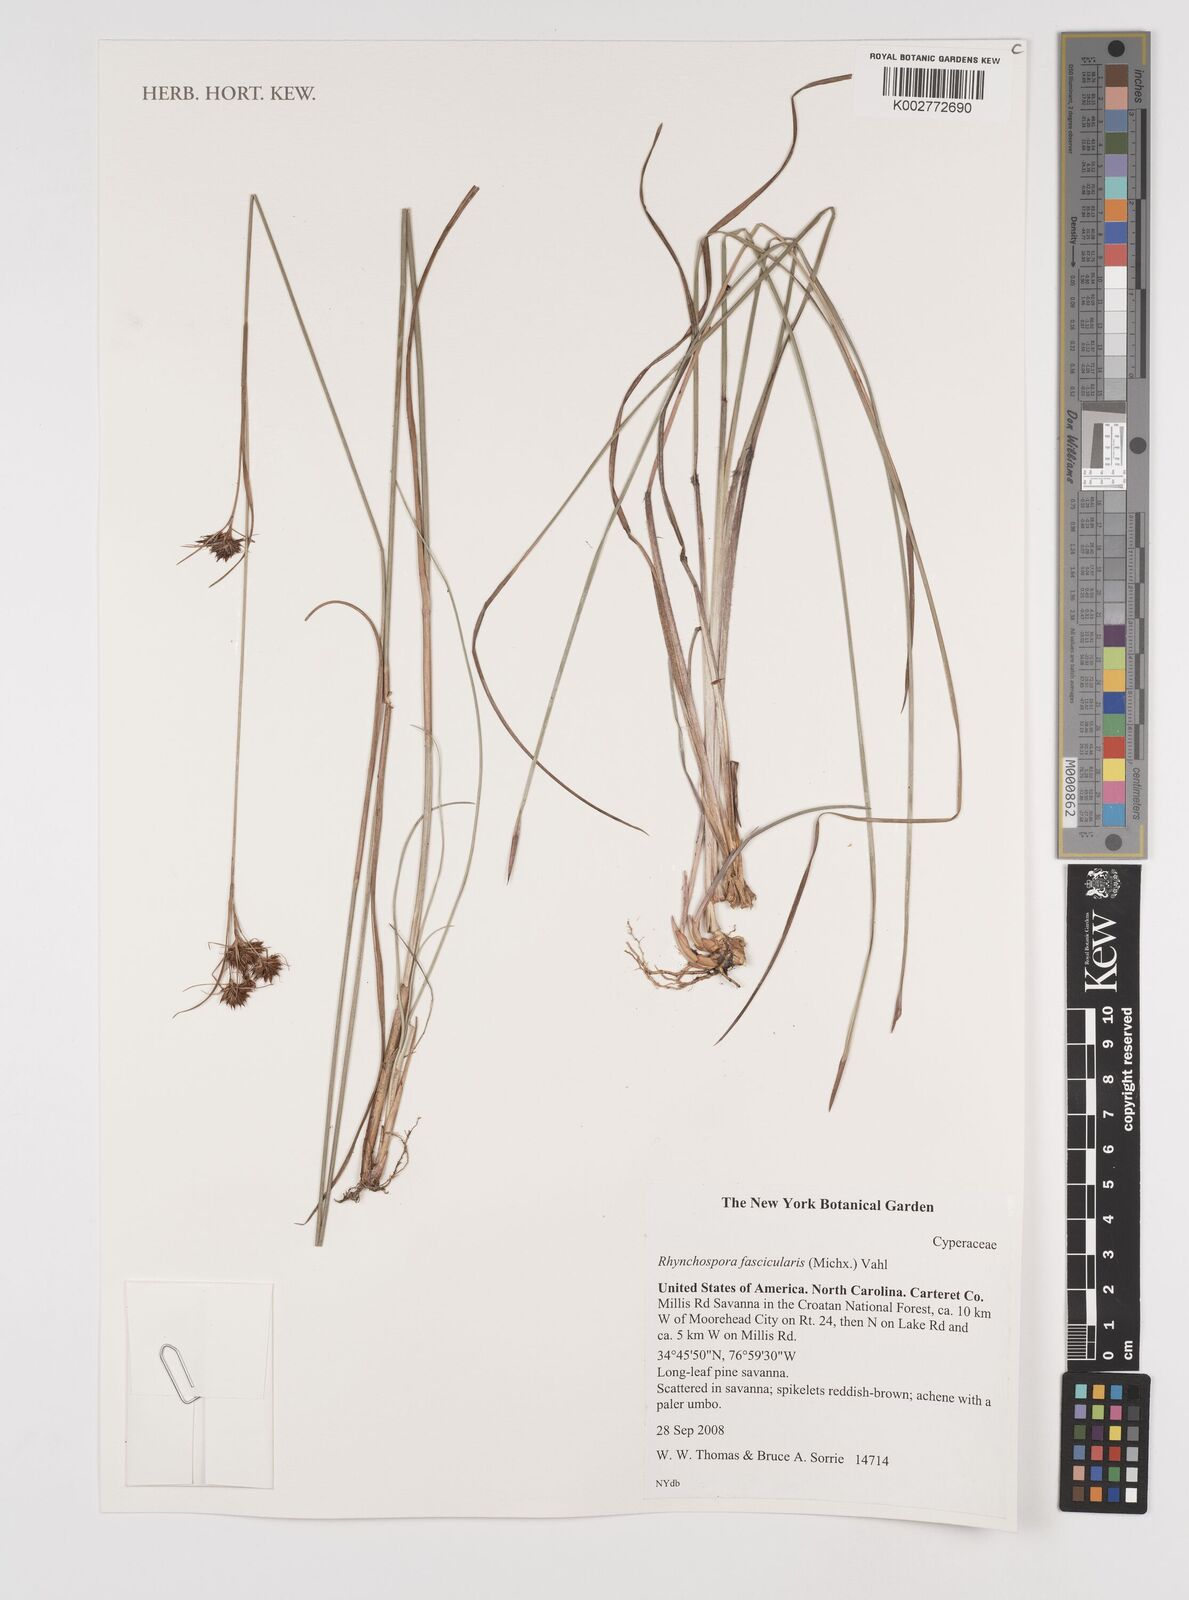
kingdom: Plantae
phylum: Tracheophyta
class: Liliopsida
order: Poales
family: Cyperaceae
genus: Rhynchospora
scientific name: Rhynchospora fascicularis
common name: Fascicled beak sedge
